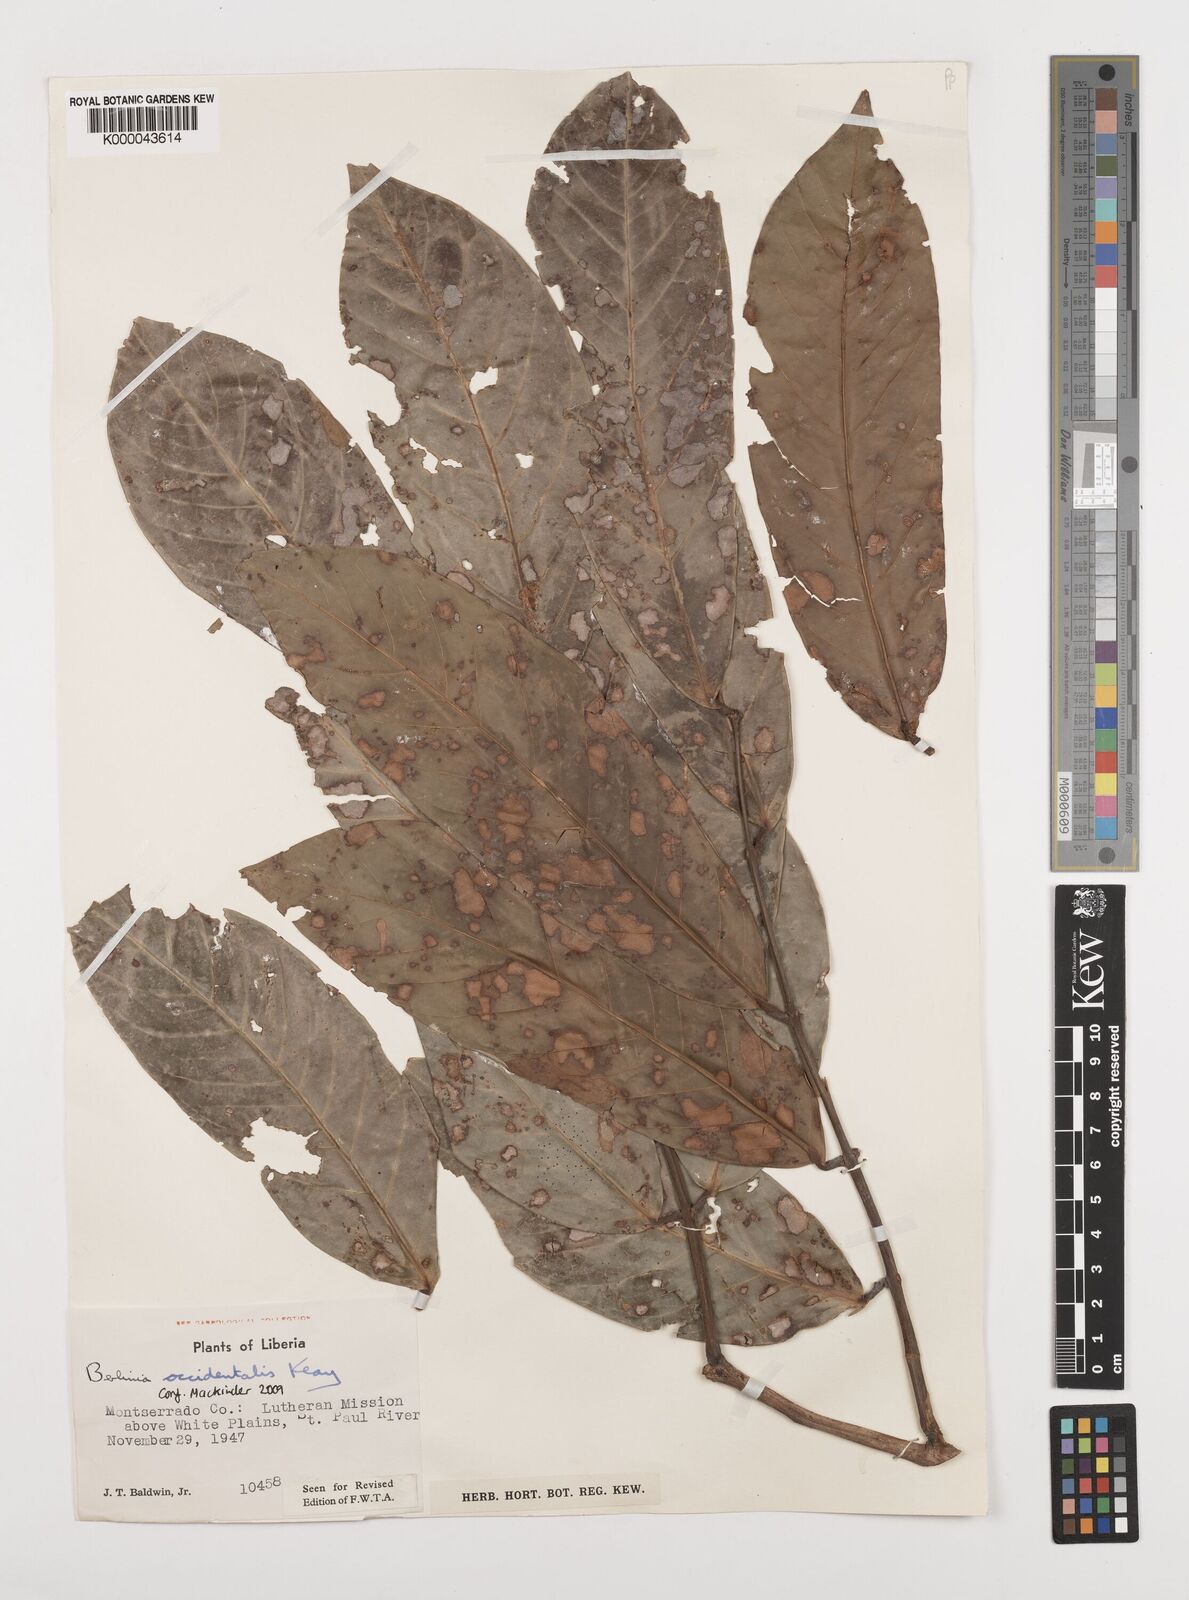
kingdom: Plantae
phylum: Tracheophyta
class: Magnoliopsida
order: Fabales
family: Fabaceae
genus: Berlinia
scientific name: Berlinia occidentalis
